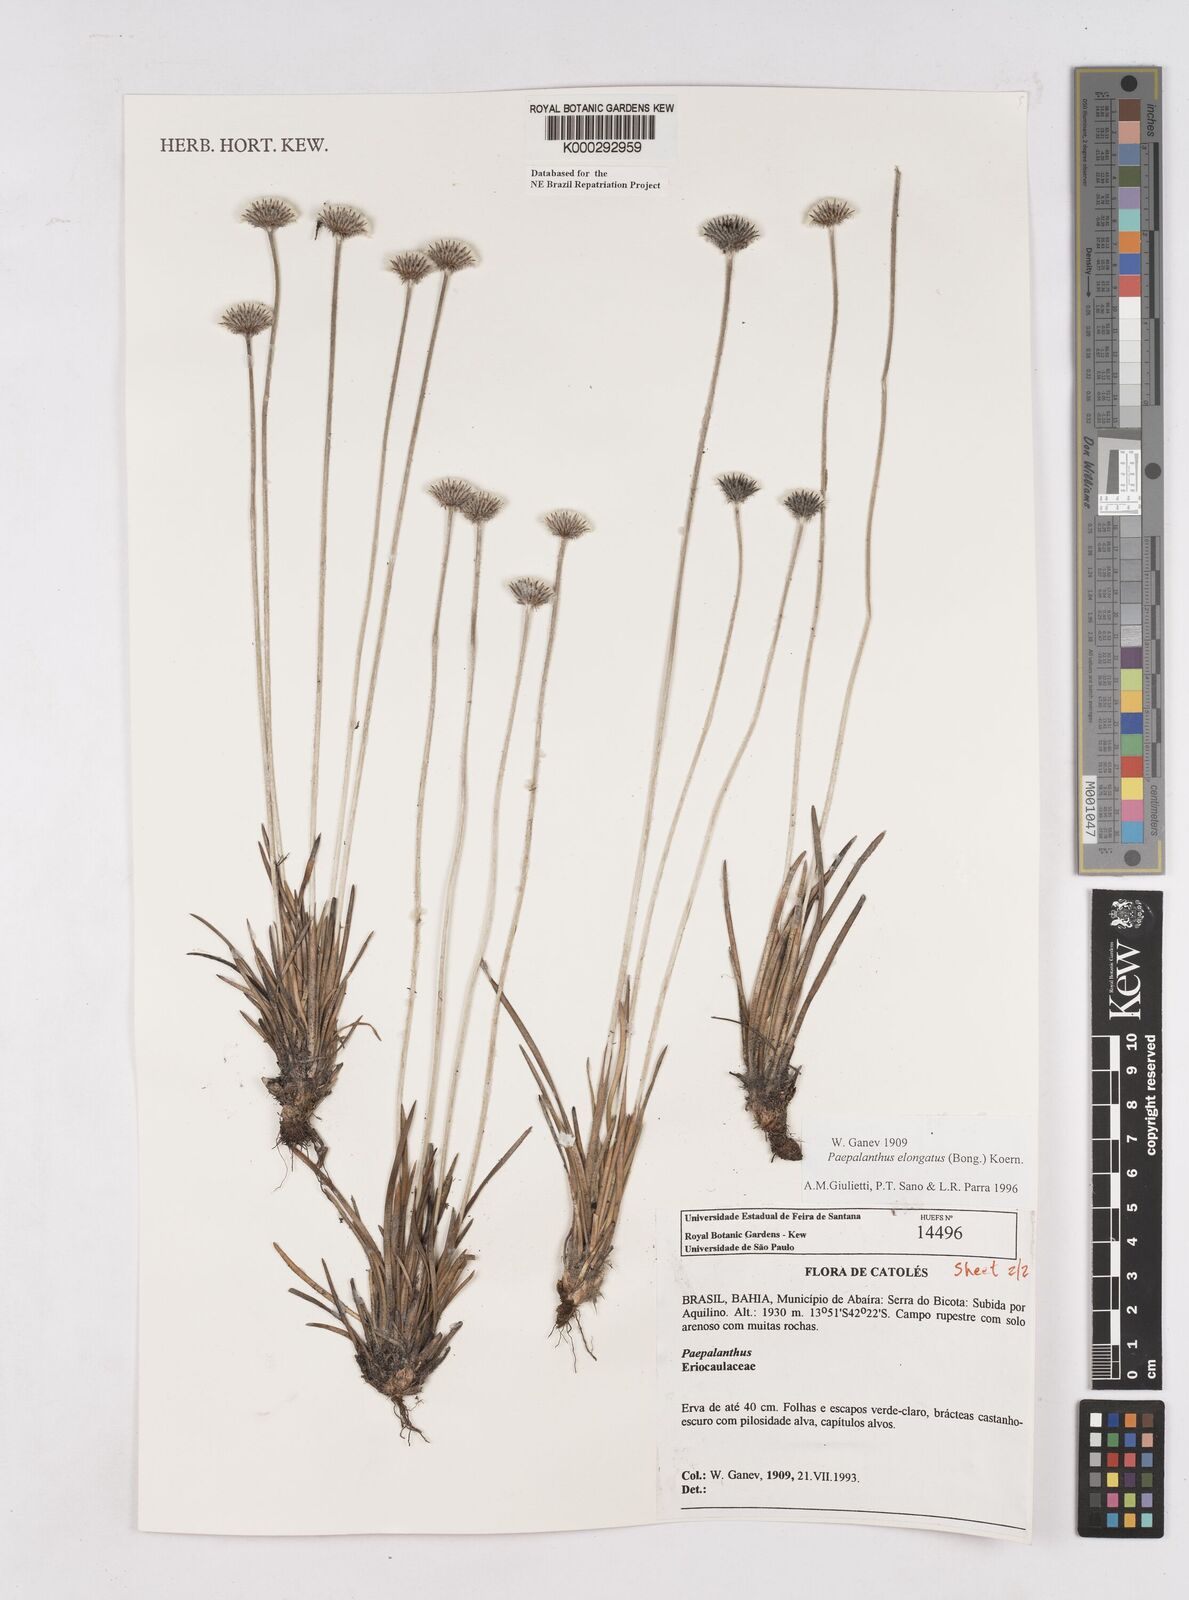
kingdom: Plantae
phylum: Tracheophyta
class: Liliopsida
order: Poales
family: Eriocaulaceae
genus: Paepalanthus
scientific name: Paepalanthus
